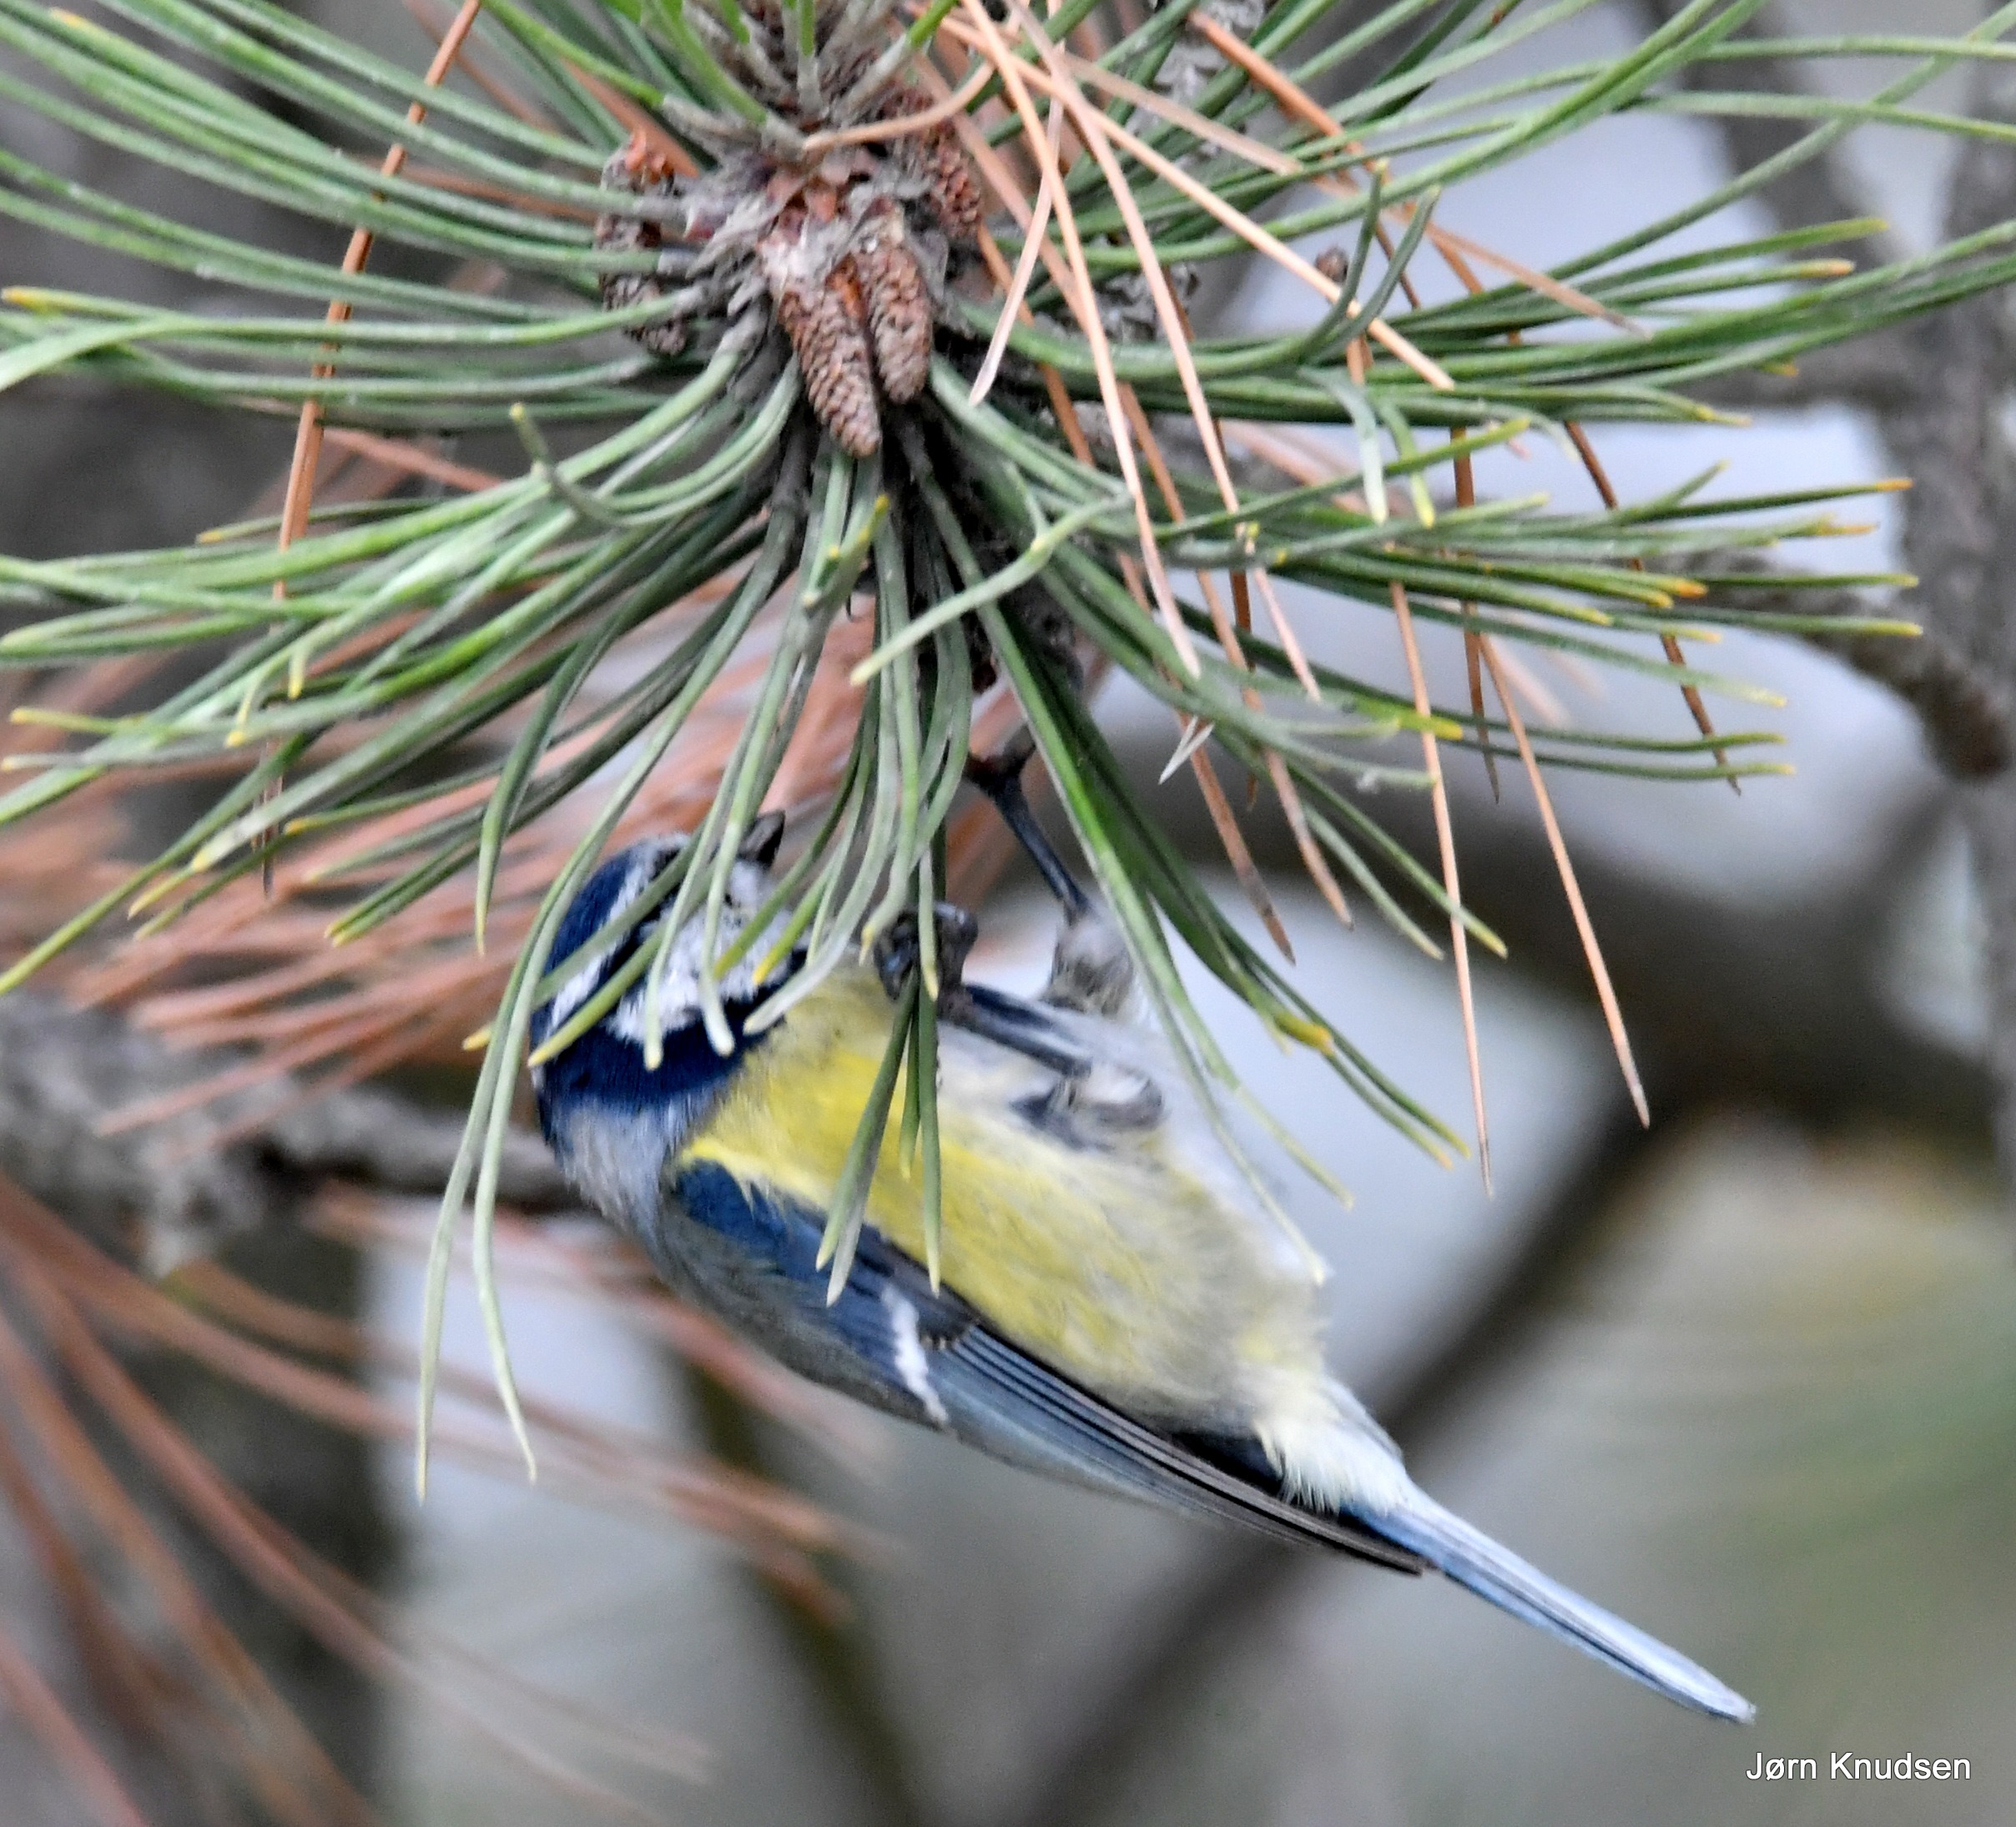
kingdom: Animalia
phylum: Chordata
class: Aves
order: Passeriformes
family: Paridae
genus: Cyanistes
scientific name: Cyanistes caeruleus
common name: Blåmejse
